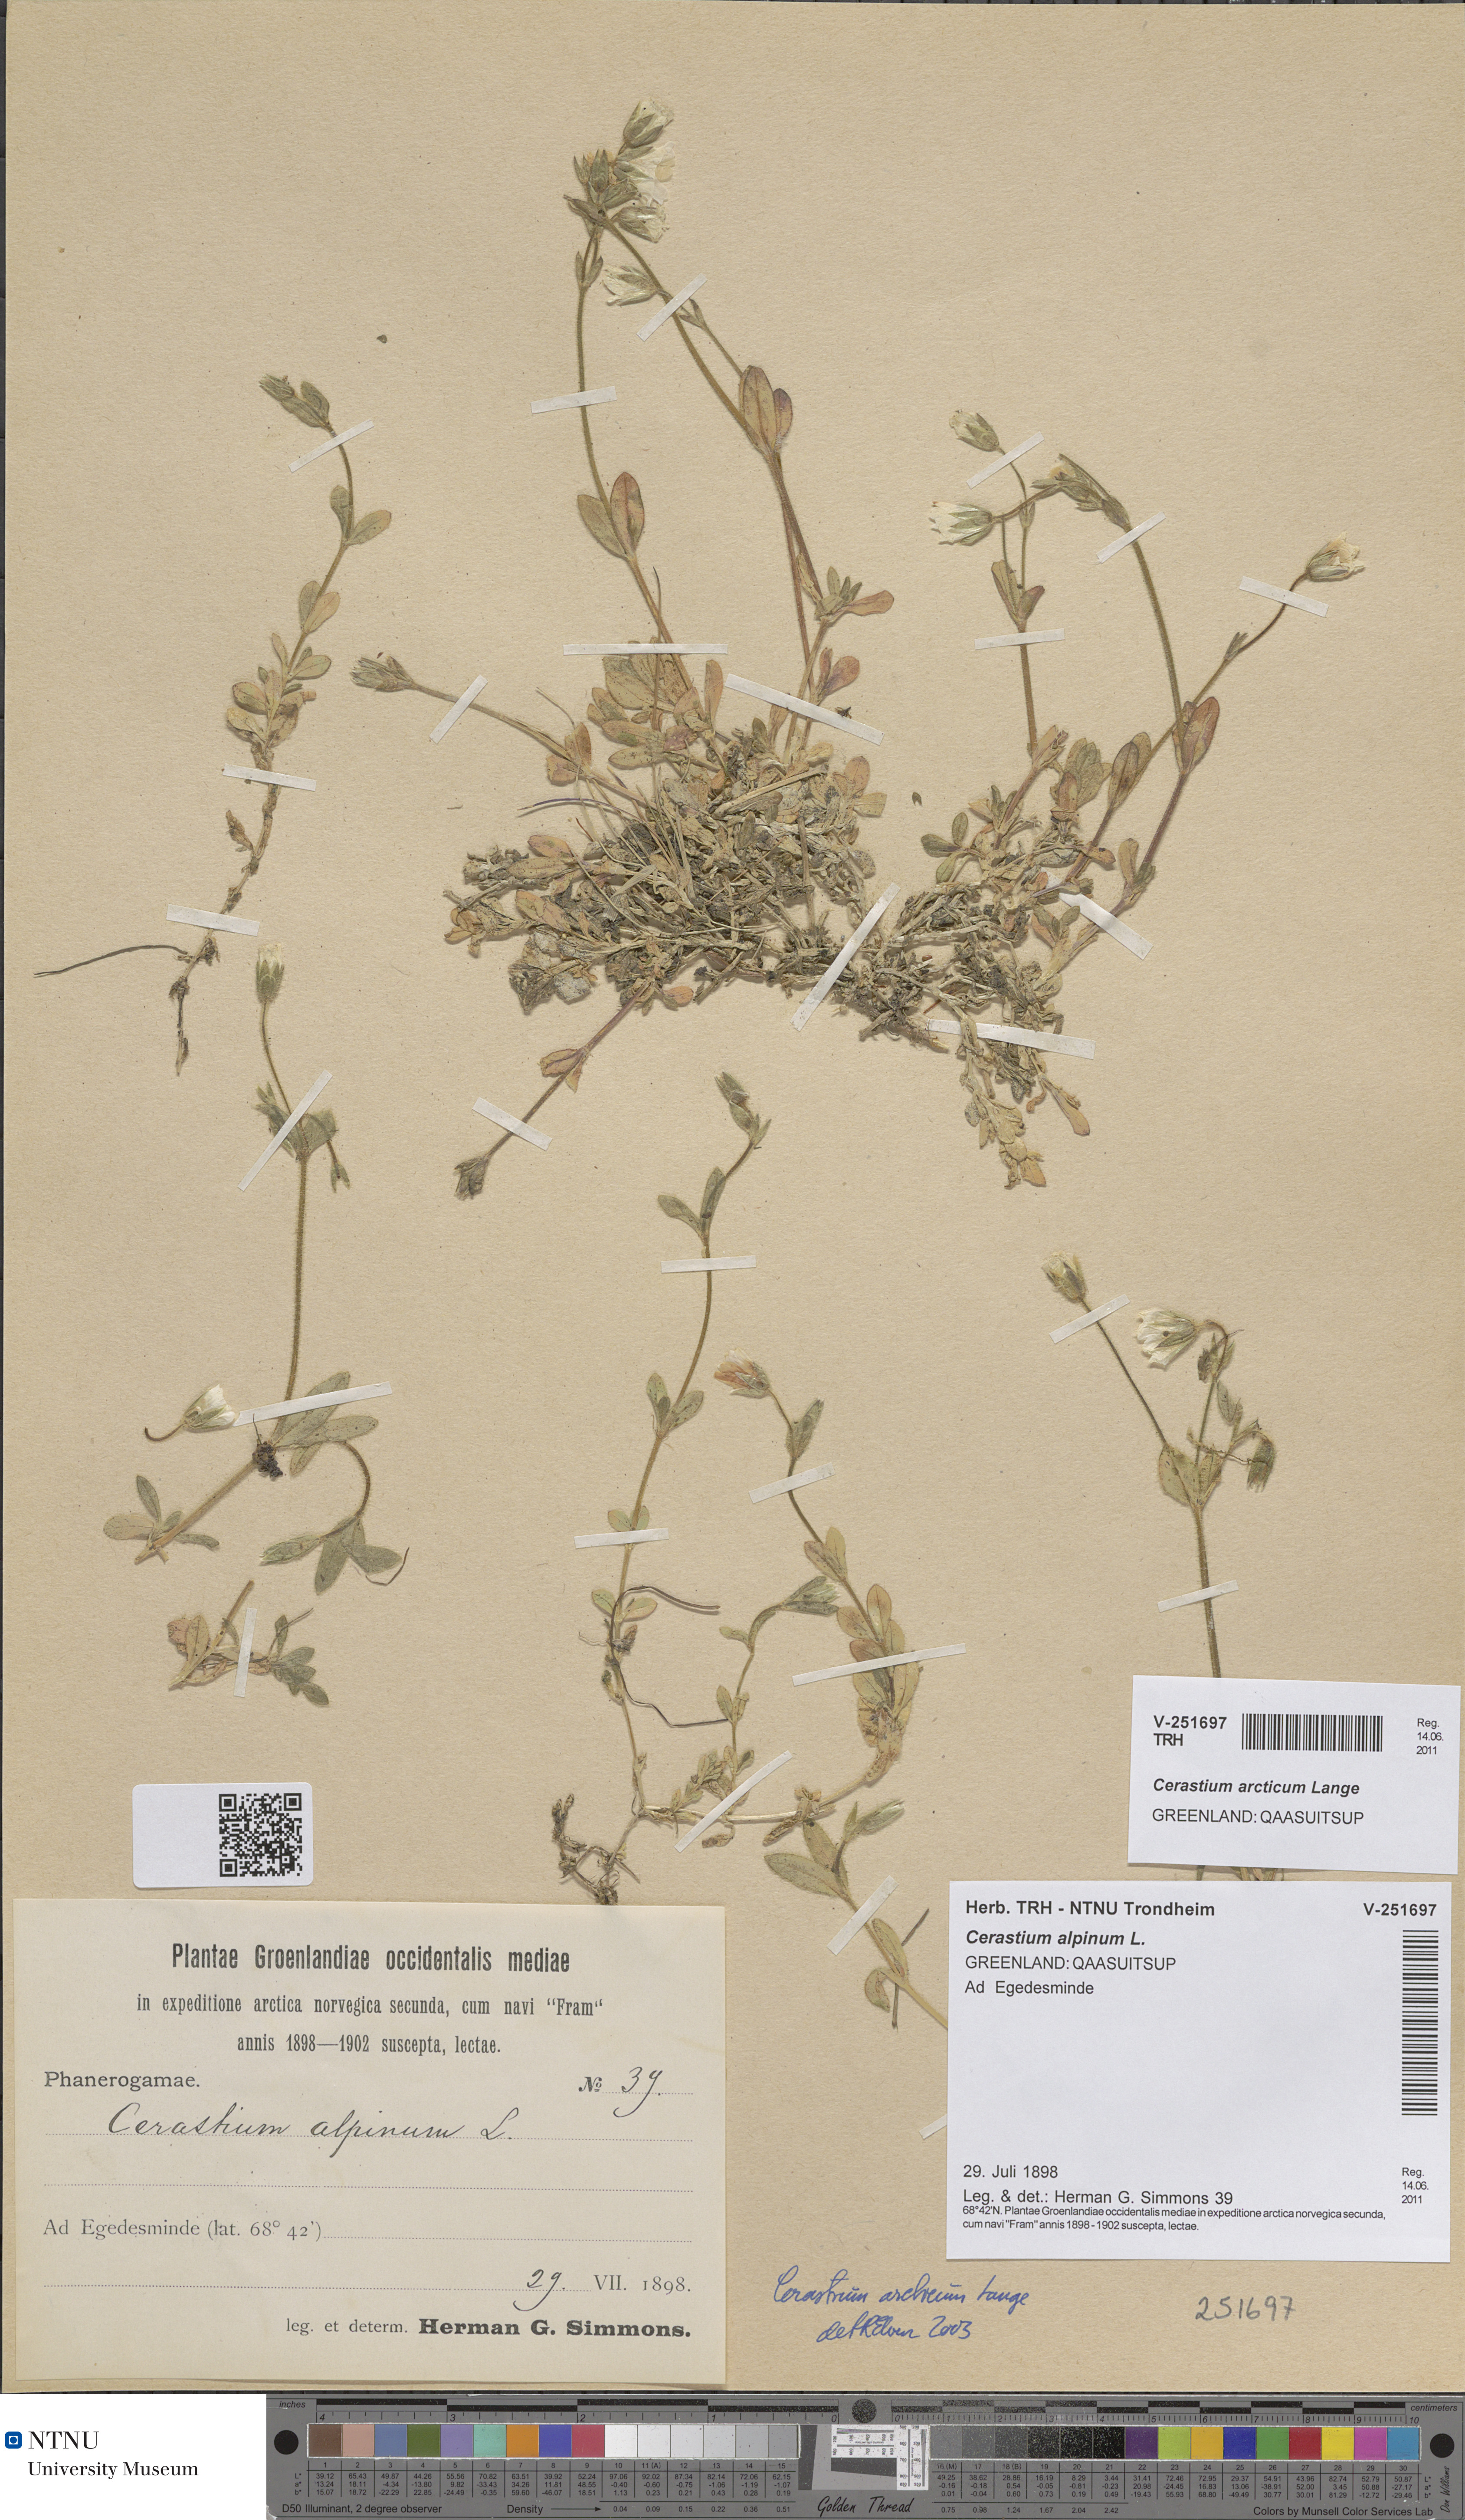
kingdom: Plantae
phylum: Tracheophyta
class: Magnoliopsida
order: Caryophyllales
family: Caryophyllaceae
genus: Cerastium
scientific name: Cerastium arcticum
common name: Arctic mouse-ear
